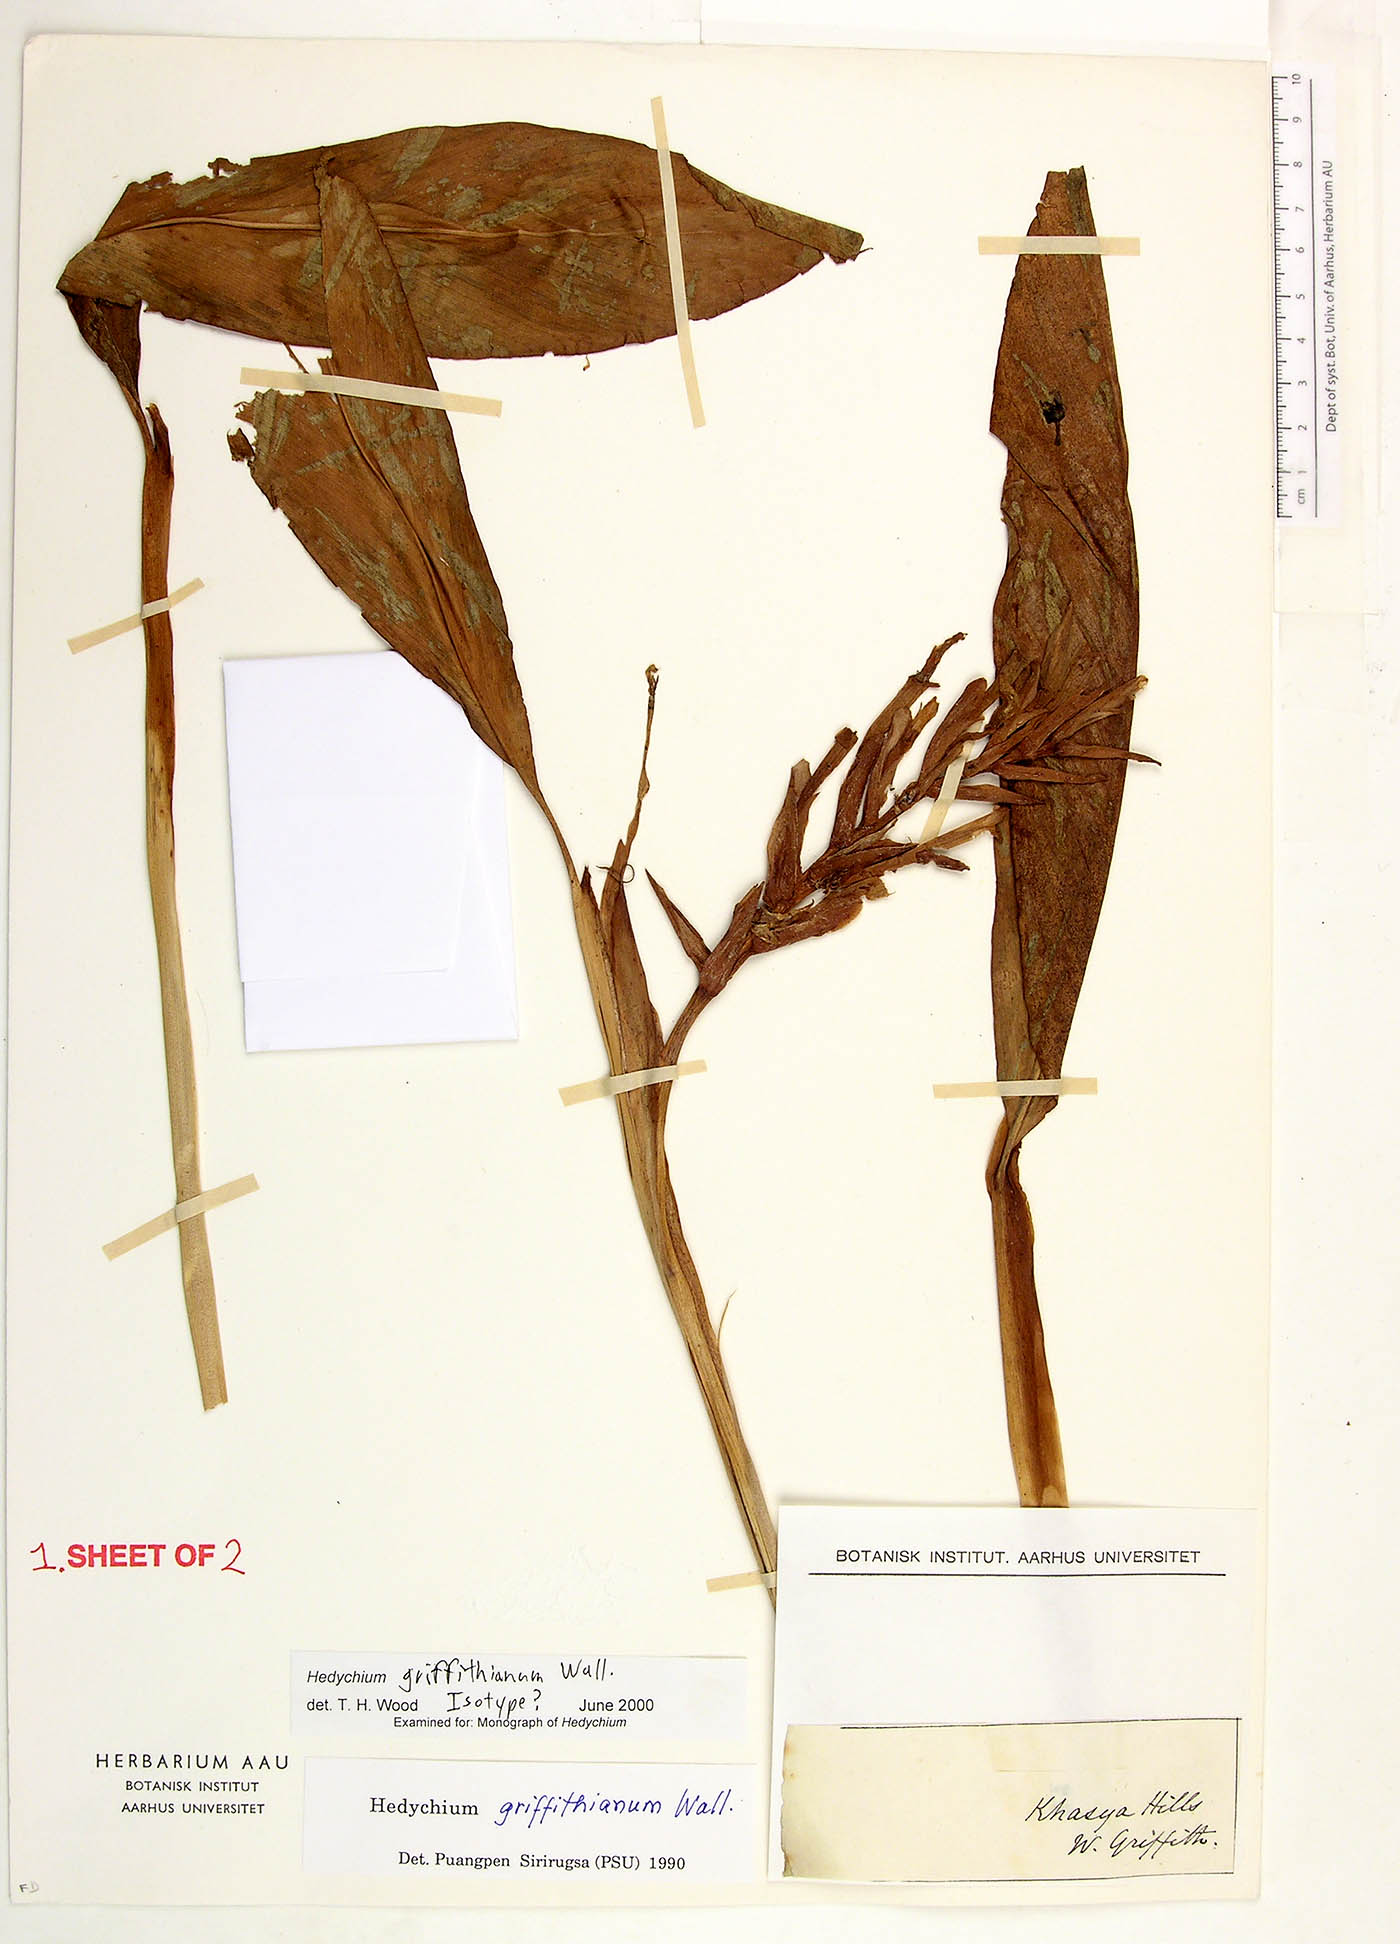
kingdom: Plantae
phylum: Tracheophyta
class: Liliopsida
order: Zingiberales
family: Zingiberaceae
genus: Hedychium
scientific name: Hedychium griffithianum
